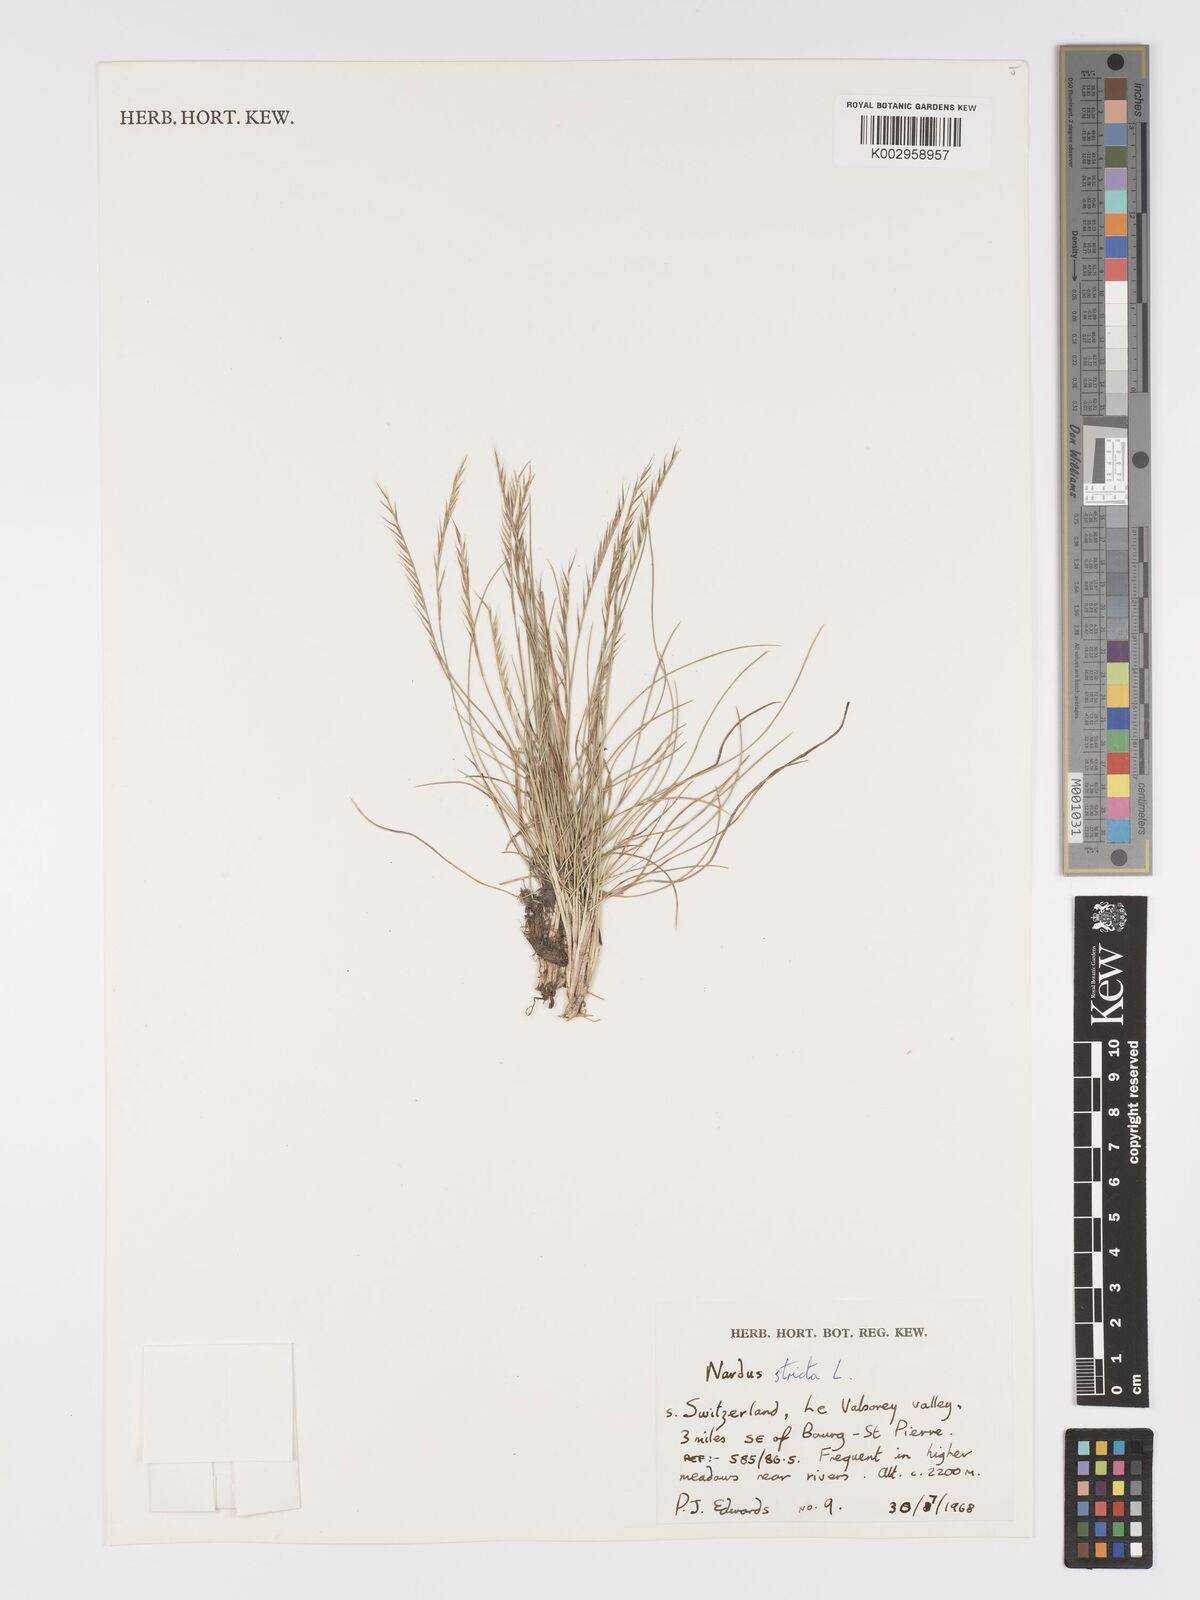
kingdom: Plantae
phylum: Tracheophyta
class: Liliopsida
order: Poales
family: Poaceae
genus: Nardus
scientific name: Nardus stricta
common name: Mat-grass
